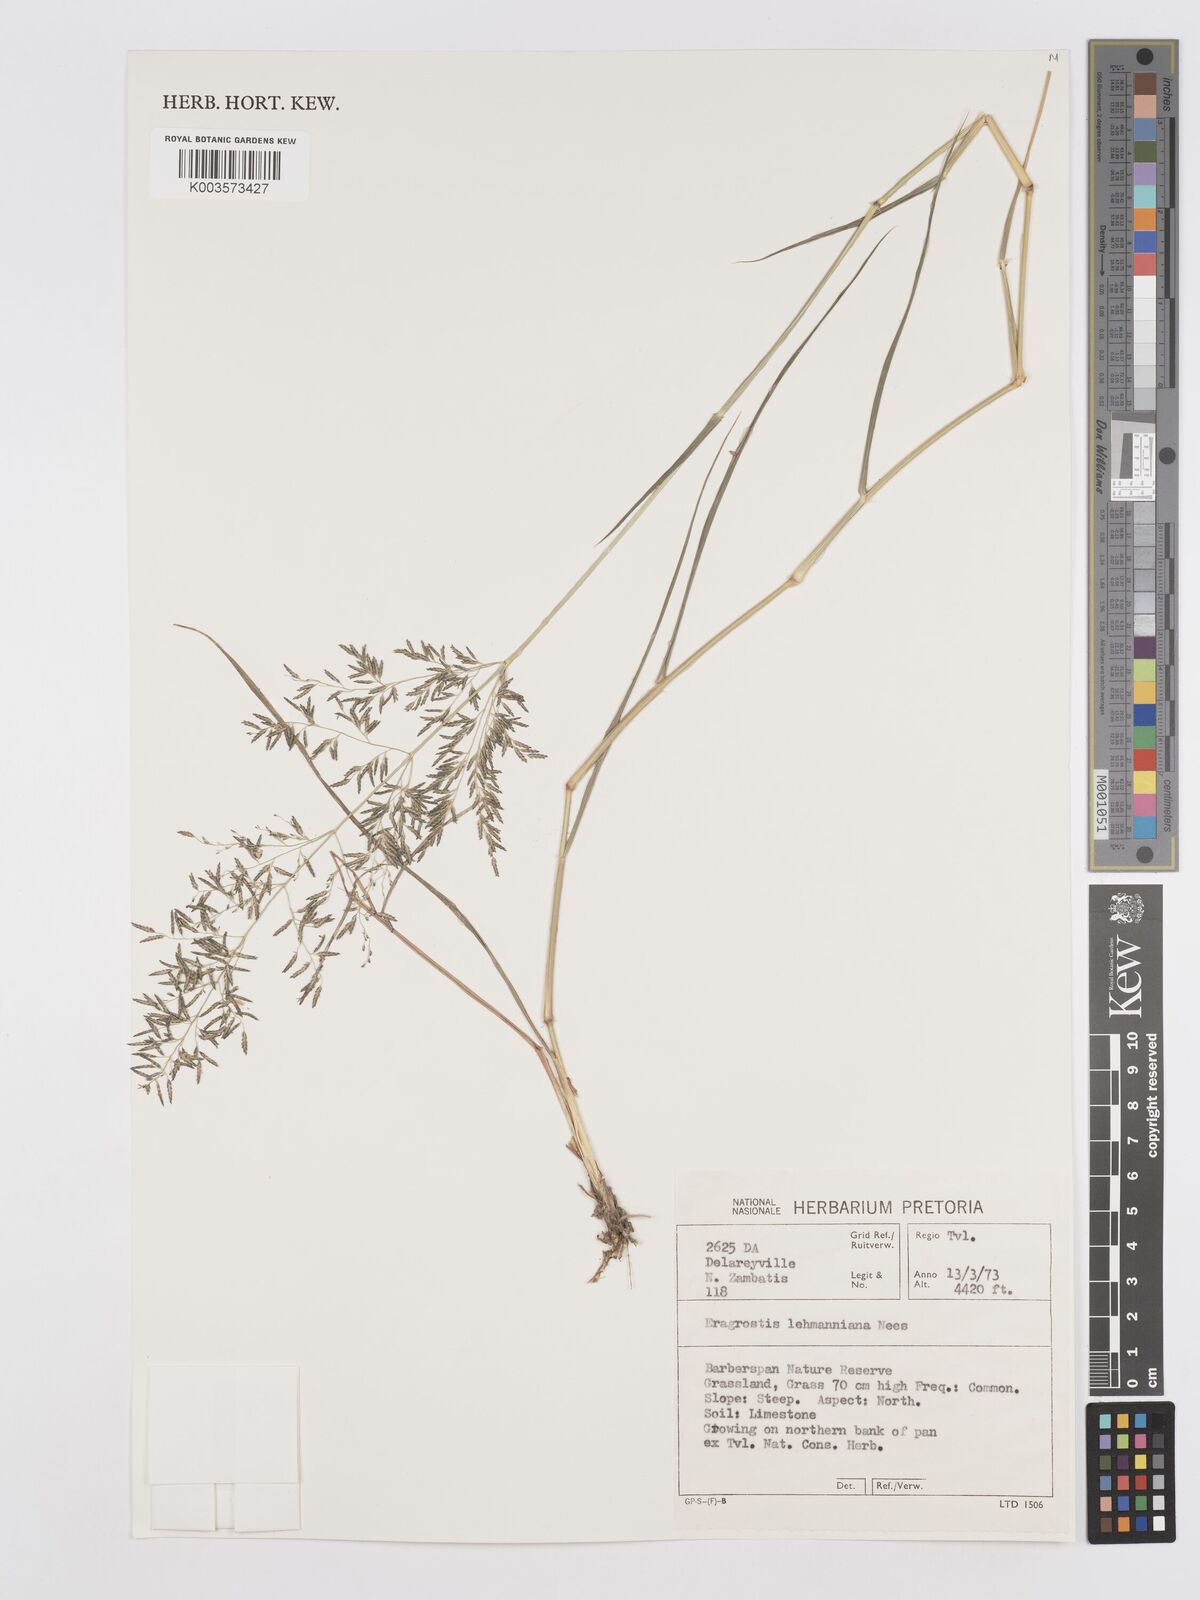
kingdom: Plantae
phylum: Tracheophyta
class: Liliopsida
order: Poales
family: Poaceae
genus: Eragrostis
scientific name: Eragrostis lehmanniana
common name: Lehmann lovegrass
